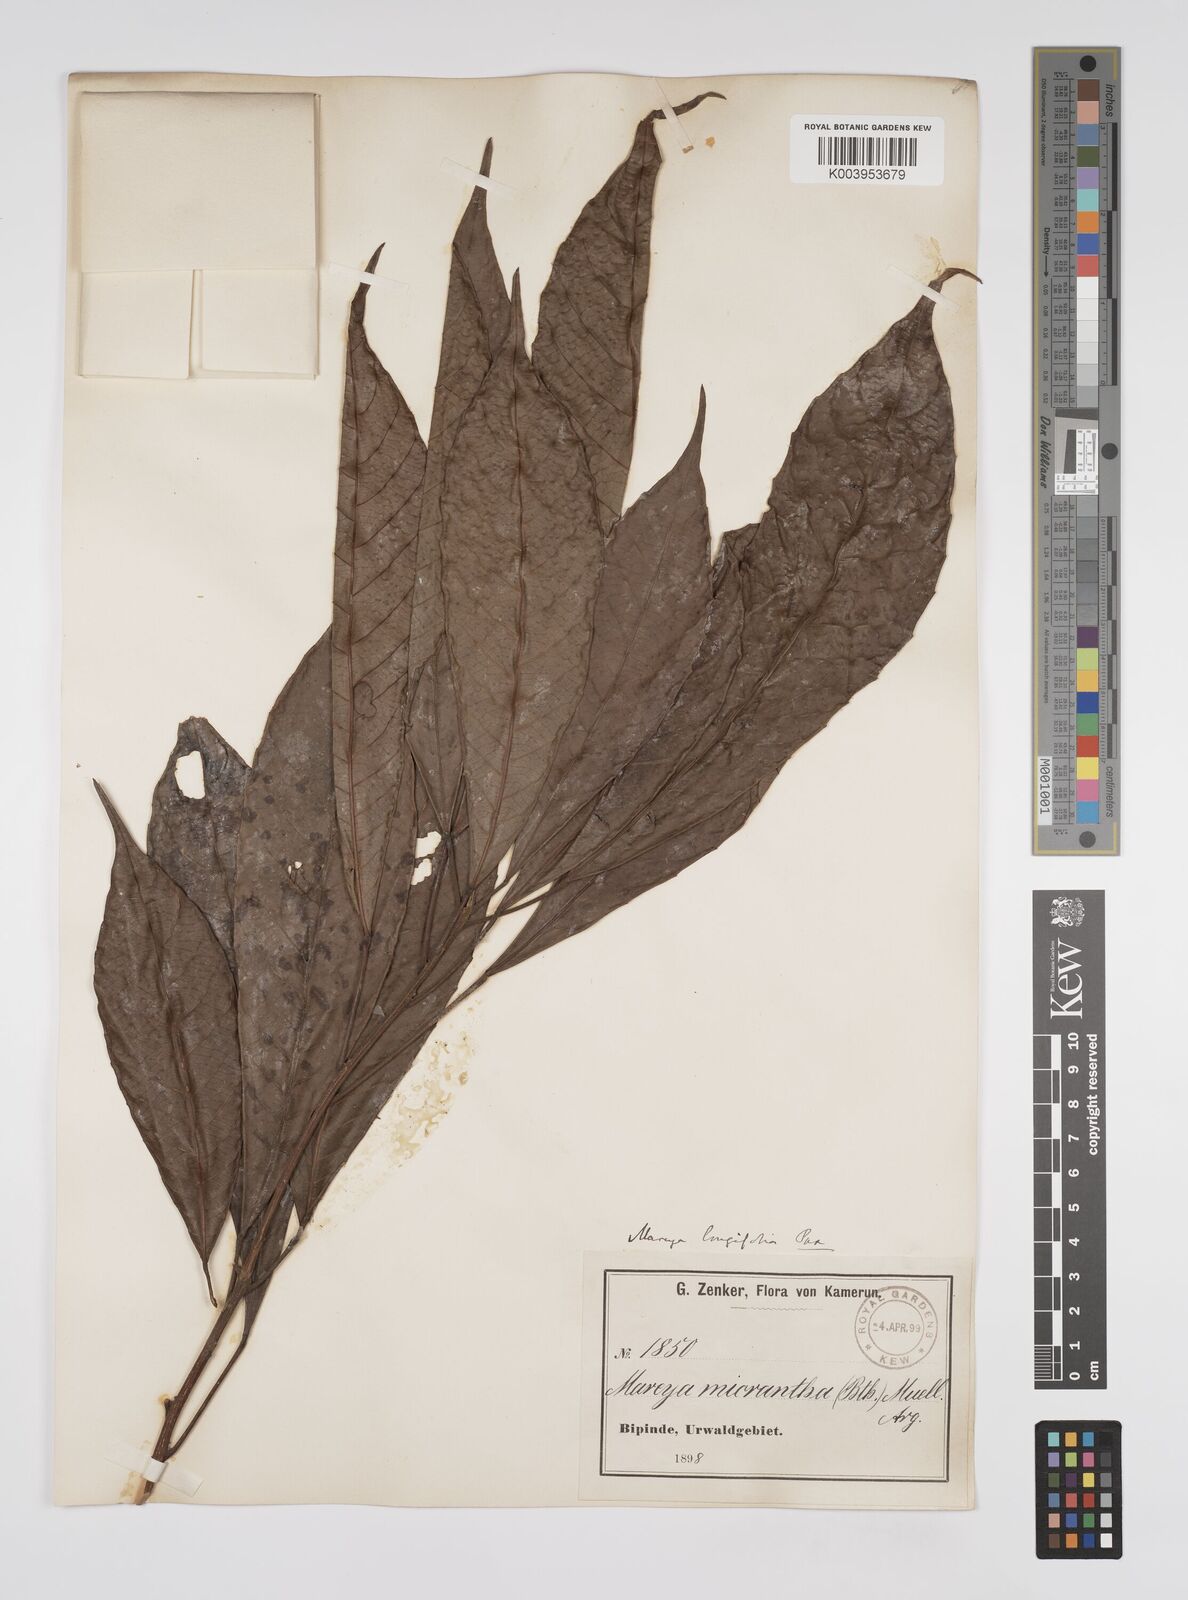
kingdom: Plantae
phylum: Tracheophyta
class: Magnoliopsida
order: Malpighiales
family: Euphorbiaceae
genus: Mareyopsis
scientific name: Mareyopsis longifolia
